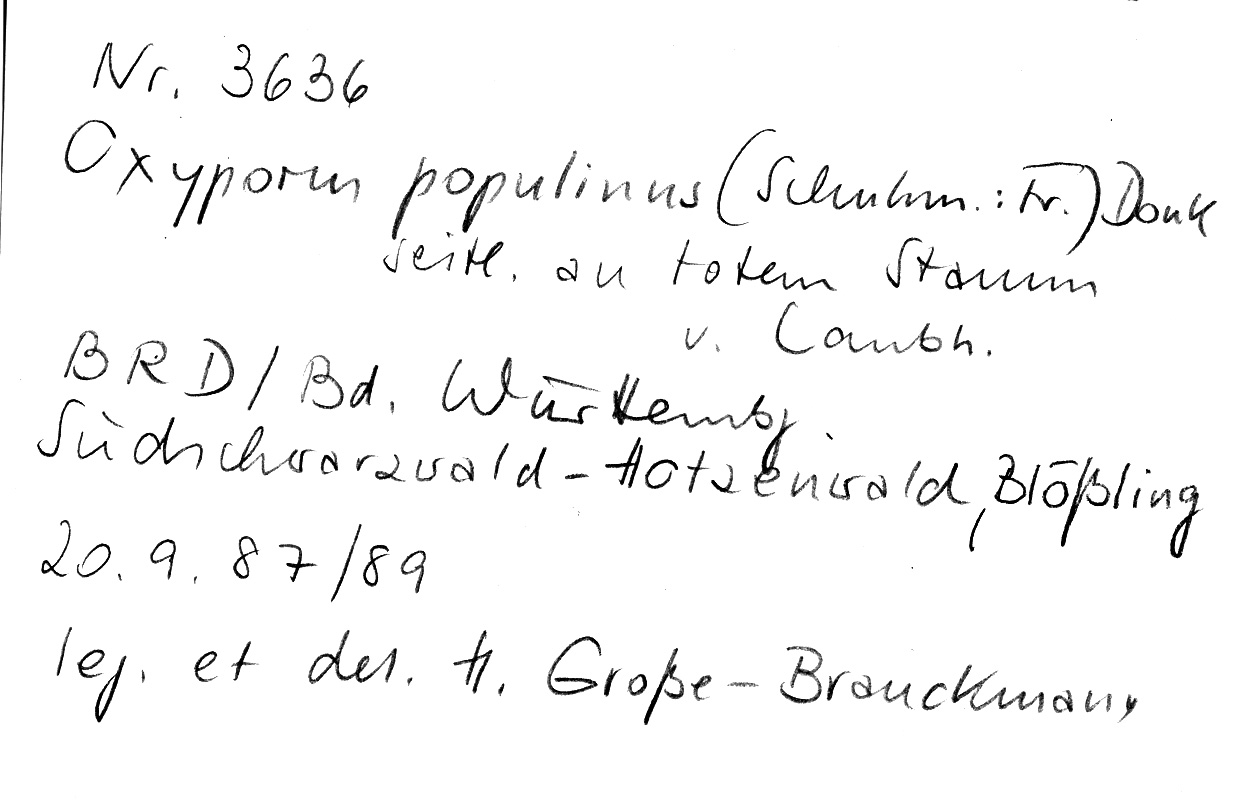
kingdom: Fungi
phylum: Basidiomycota
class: Agaricomycetes
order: Hymenochaetales
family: Oxyporaceae
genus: Oxyporus
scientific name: Oxyporus populinus
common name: Poplar bracket
